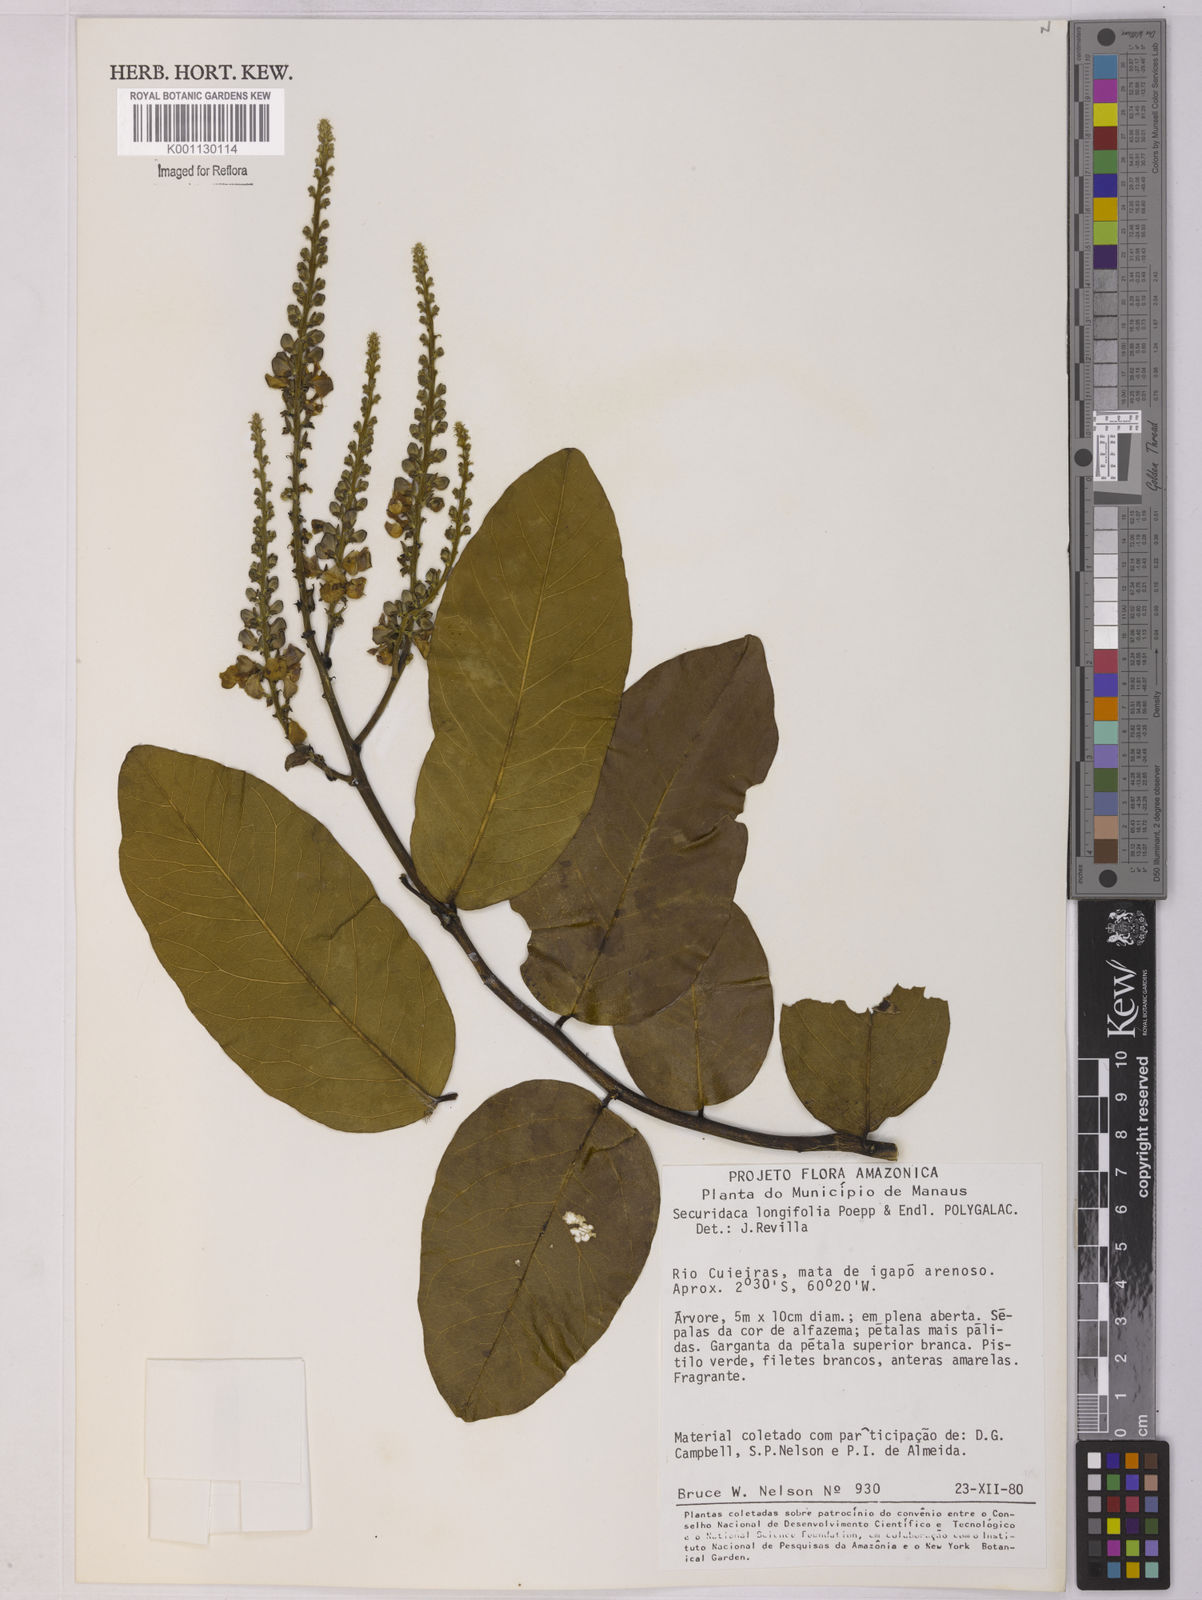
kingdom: Plantae
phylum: Tracheophyta
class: Magnoliopsida
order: Fabales
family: Polygalaceae
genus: Securidaca
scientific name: Securidaca longifolia
